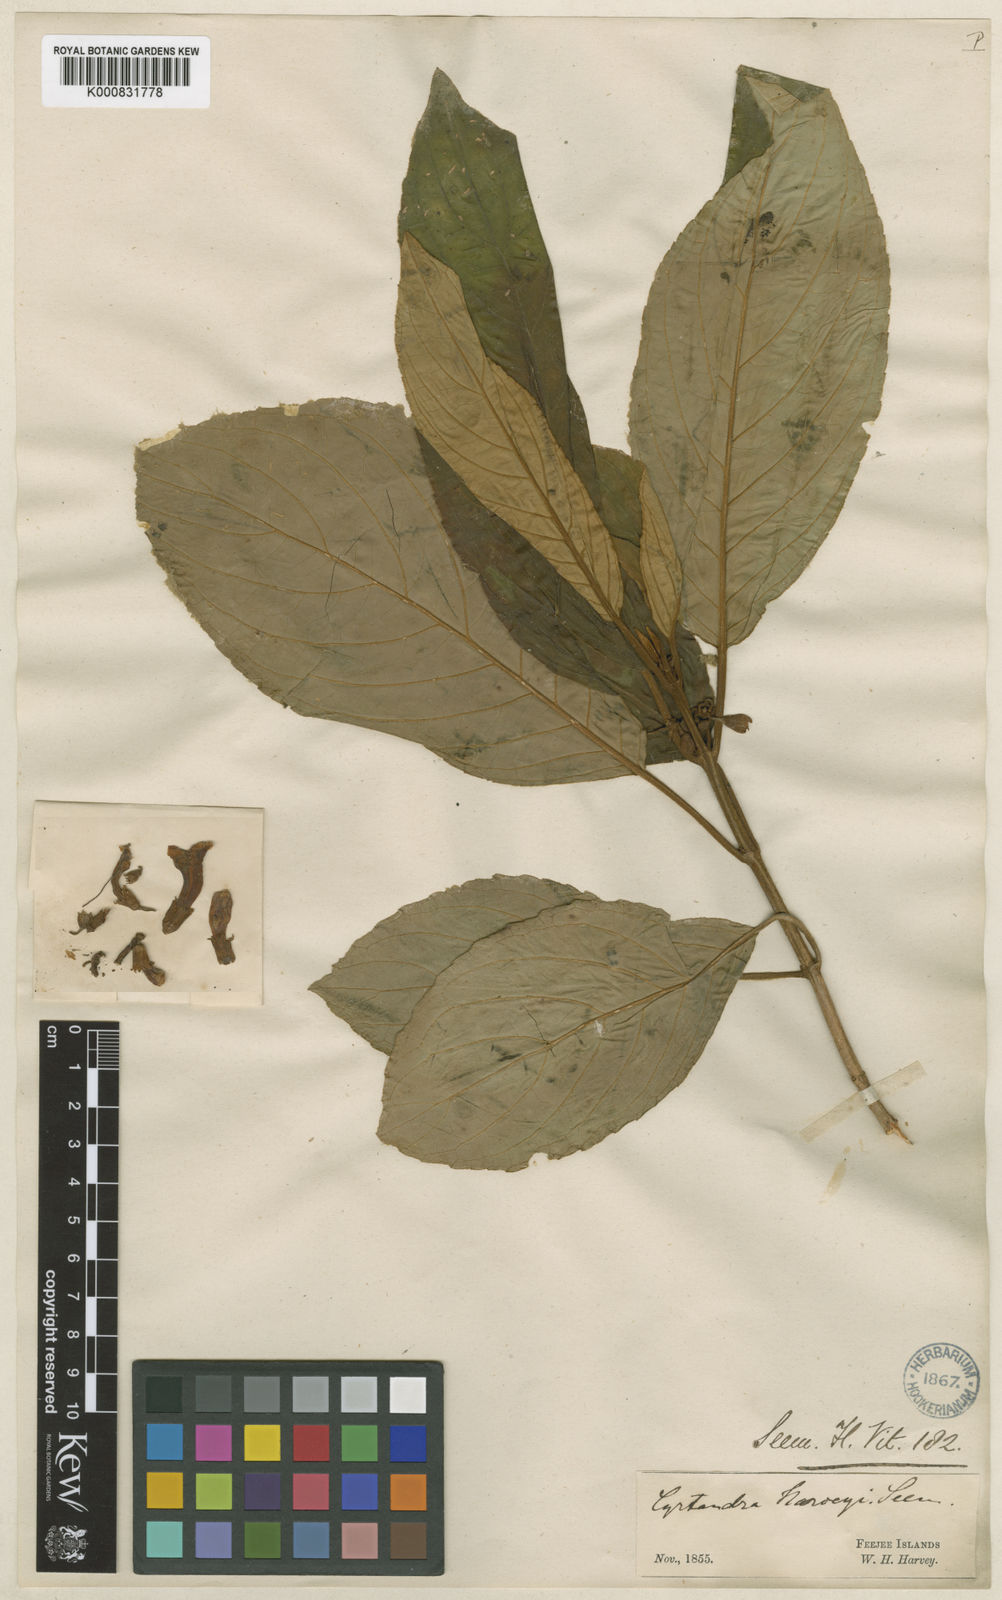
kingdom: Plantae
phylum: Tracheophyta
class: Magnoliopsida
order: Lamiales
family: Gesneriaceae
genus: Cyrtandra
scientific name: Cyrtandra harveyi
